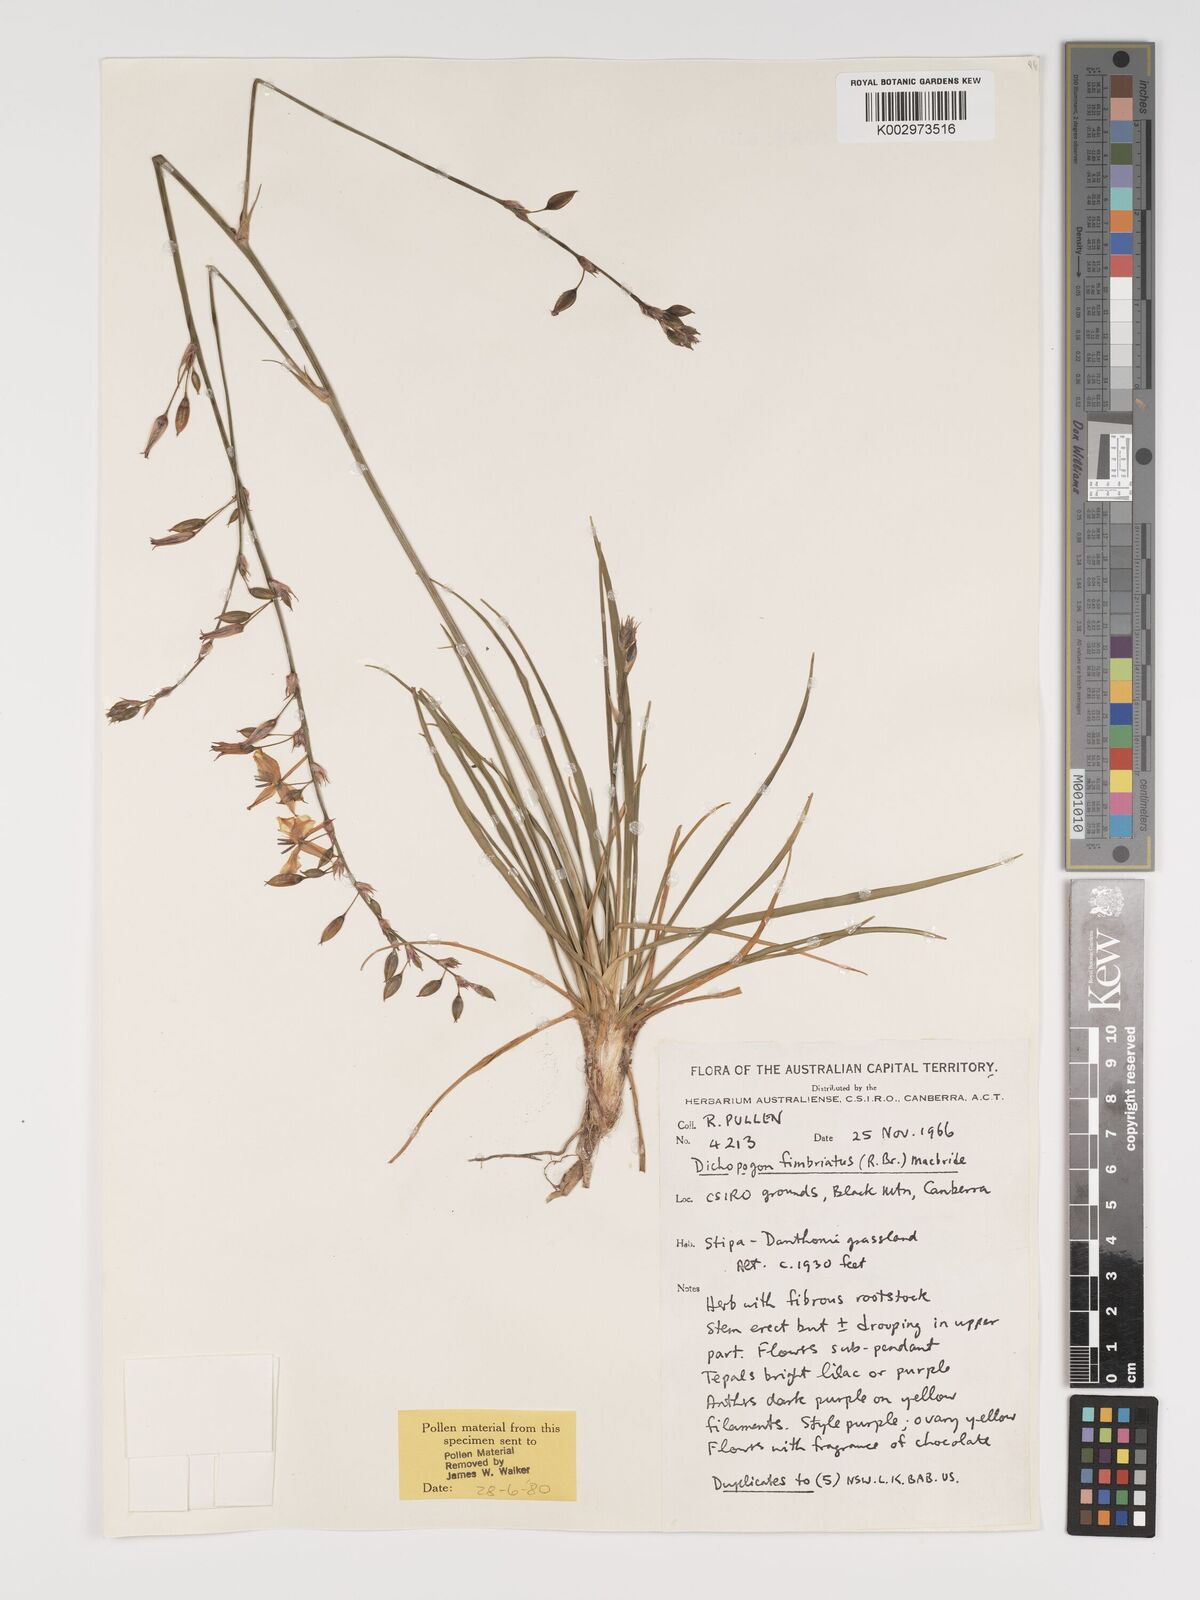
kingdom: Plantae
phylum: Tracheophyta
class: Liliopsida
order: Asparagales
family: Asparagaceae
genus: Dichopogon
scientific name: Dichopogon fimbriatus
